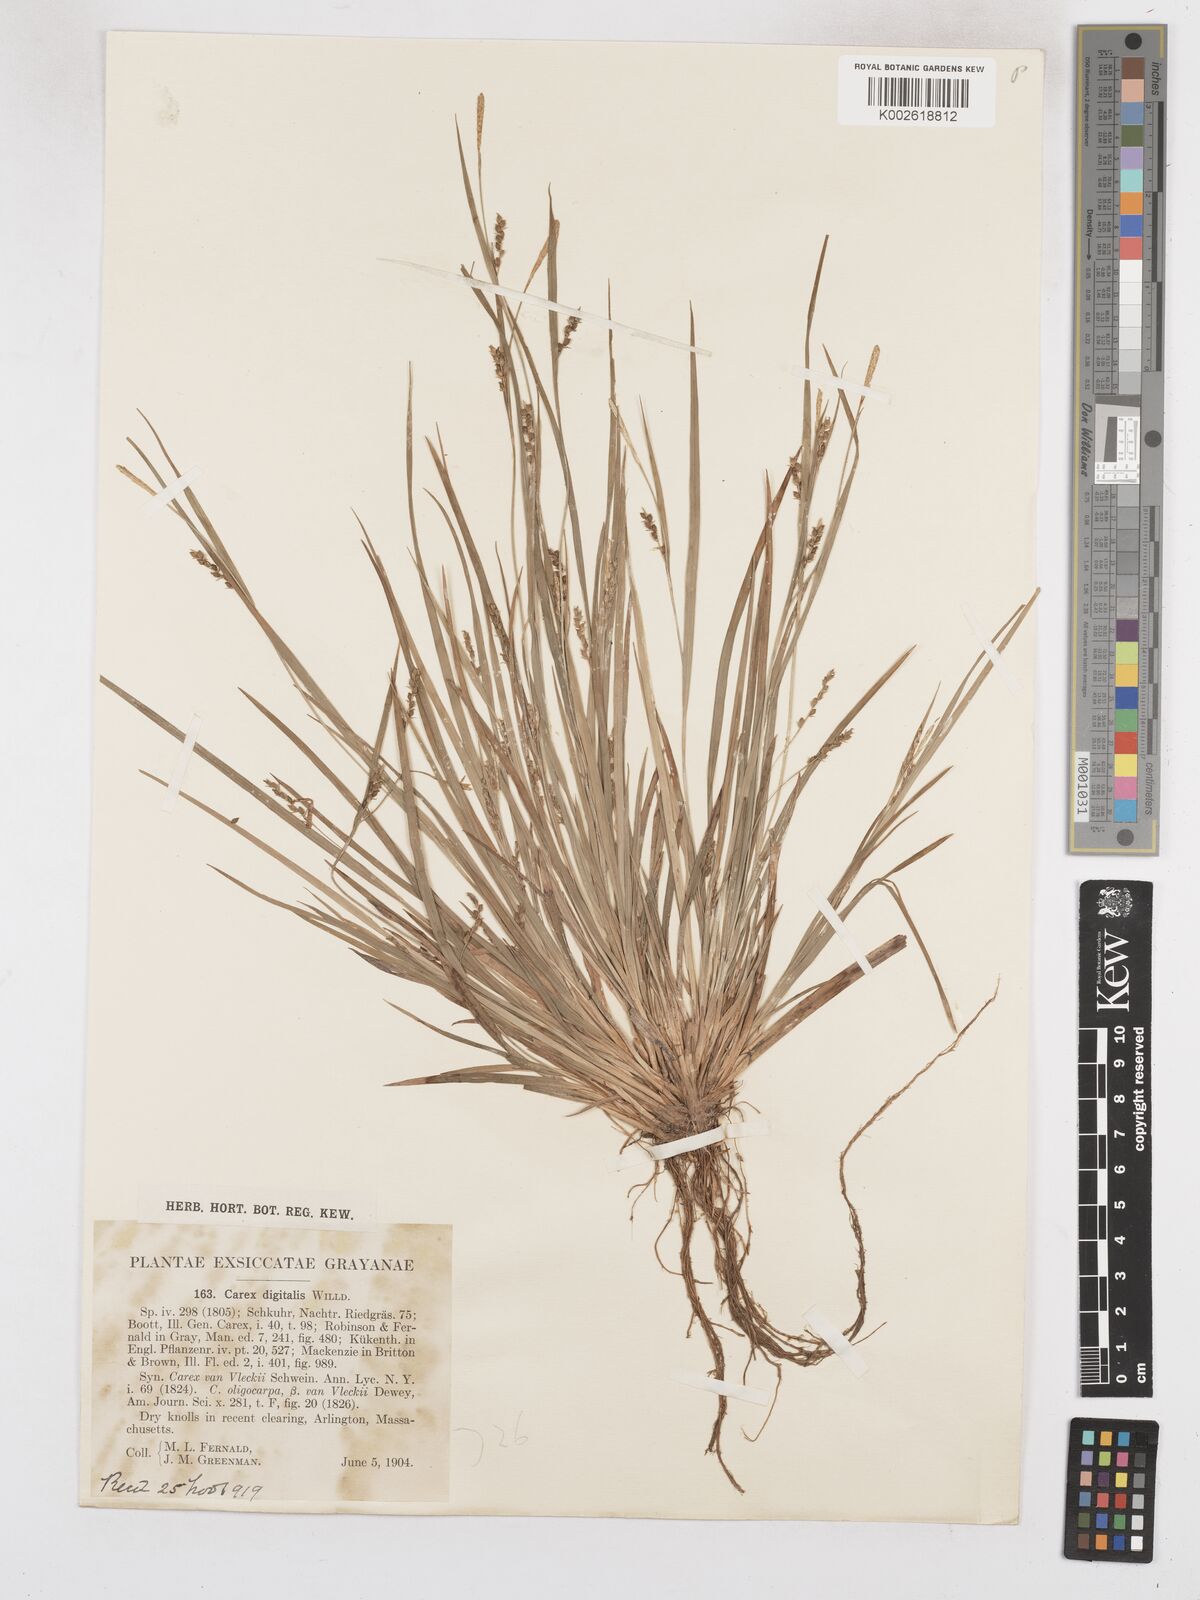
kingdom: Plantae
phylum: Tracheophyta
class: Liliopsida
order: Poales
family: Cyperaceae
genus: Carex
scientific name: Carex digitalis
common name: Slender wood sedge
